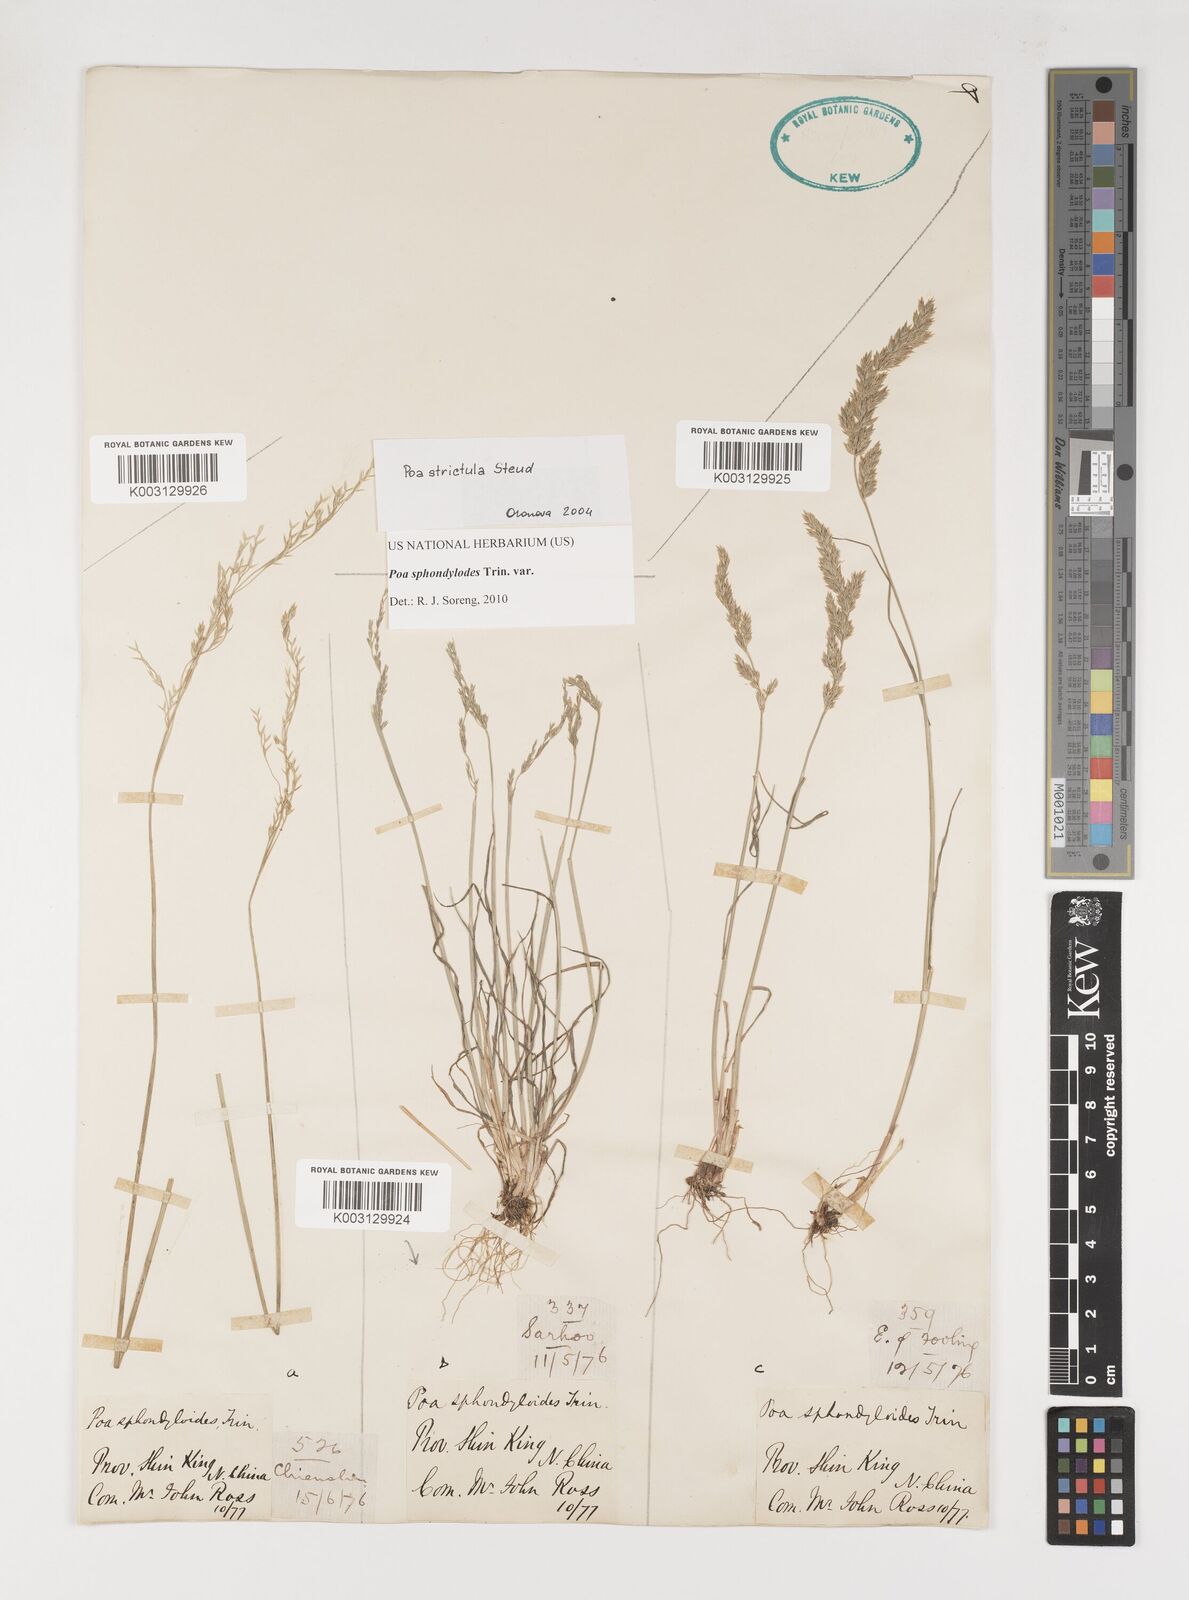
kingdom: Plantae
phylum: Tracheophyta
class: Liliopsida
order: Poales
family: Poaceae
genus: Poa
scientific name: Poa sphondylodes
